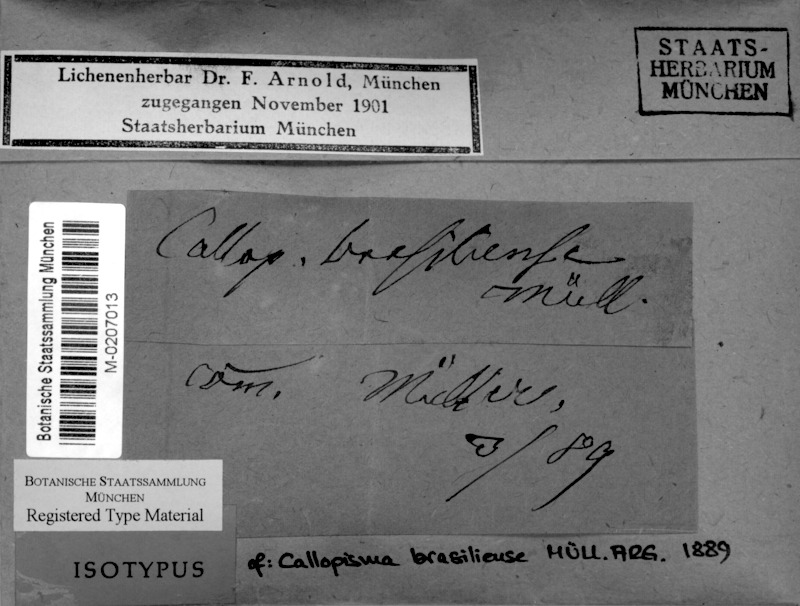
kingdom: Fungi
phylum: Ascomycota
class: Lecanoromycetes
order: Teloschistales
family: Teloschistaceae
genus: Caloplaca
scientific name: Caloplaca
